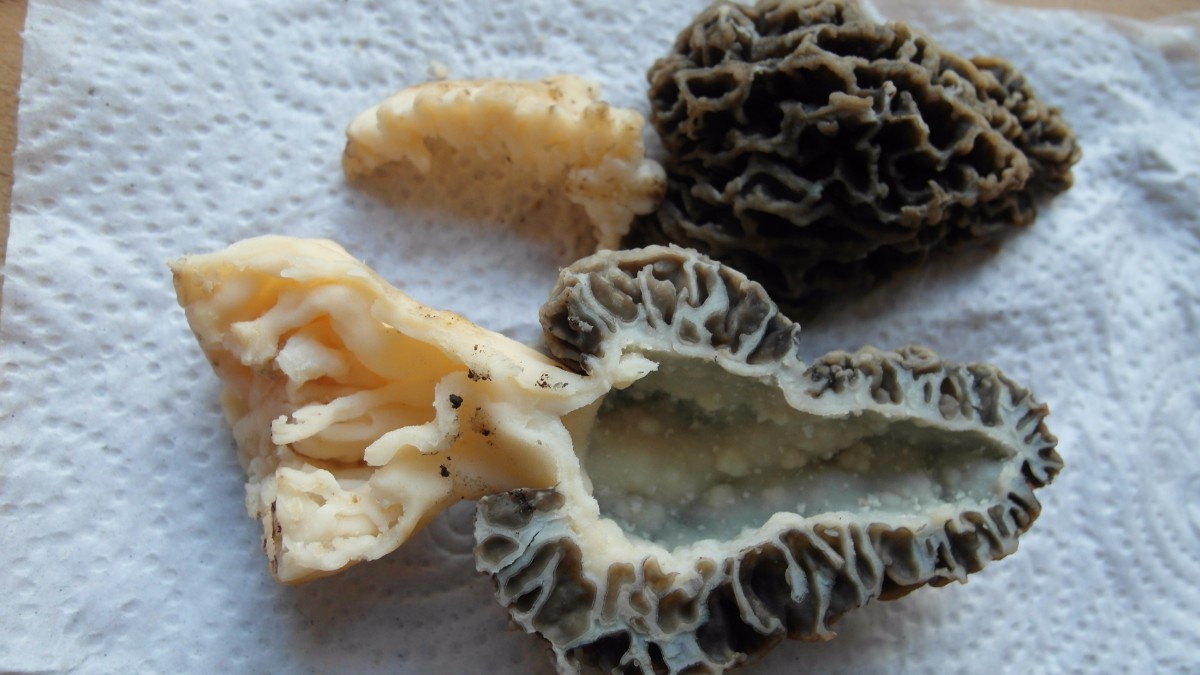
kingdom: Fungi
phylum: Ascomycota
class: Pezizomycetes
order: Pezizales
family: Morchellaceae
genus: Morchella
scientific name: Morchella esculenta
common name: almindelig morkel
